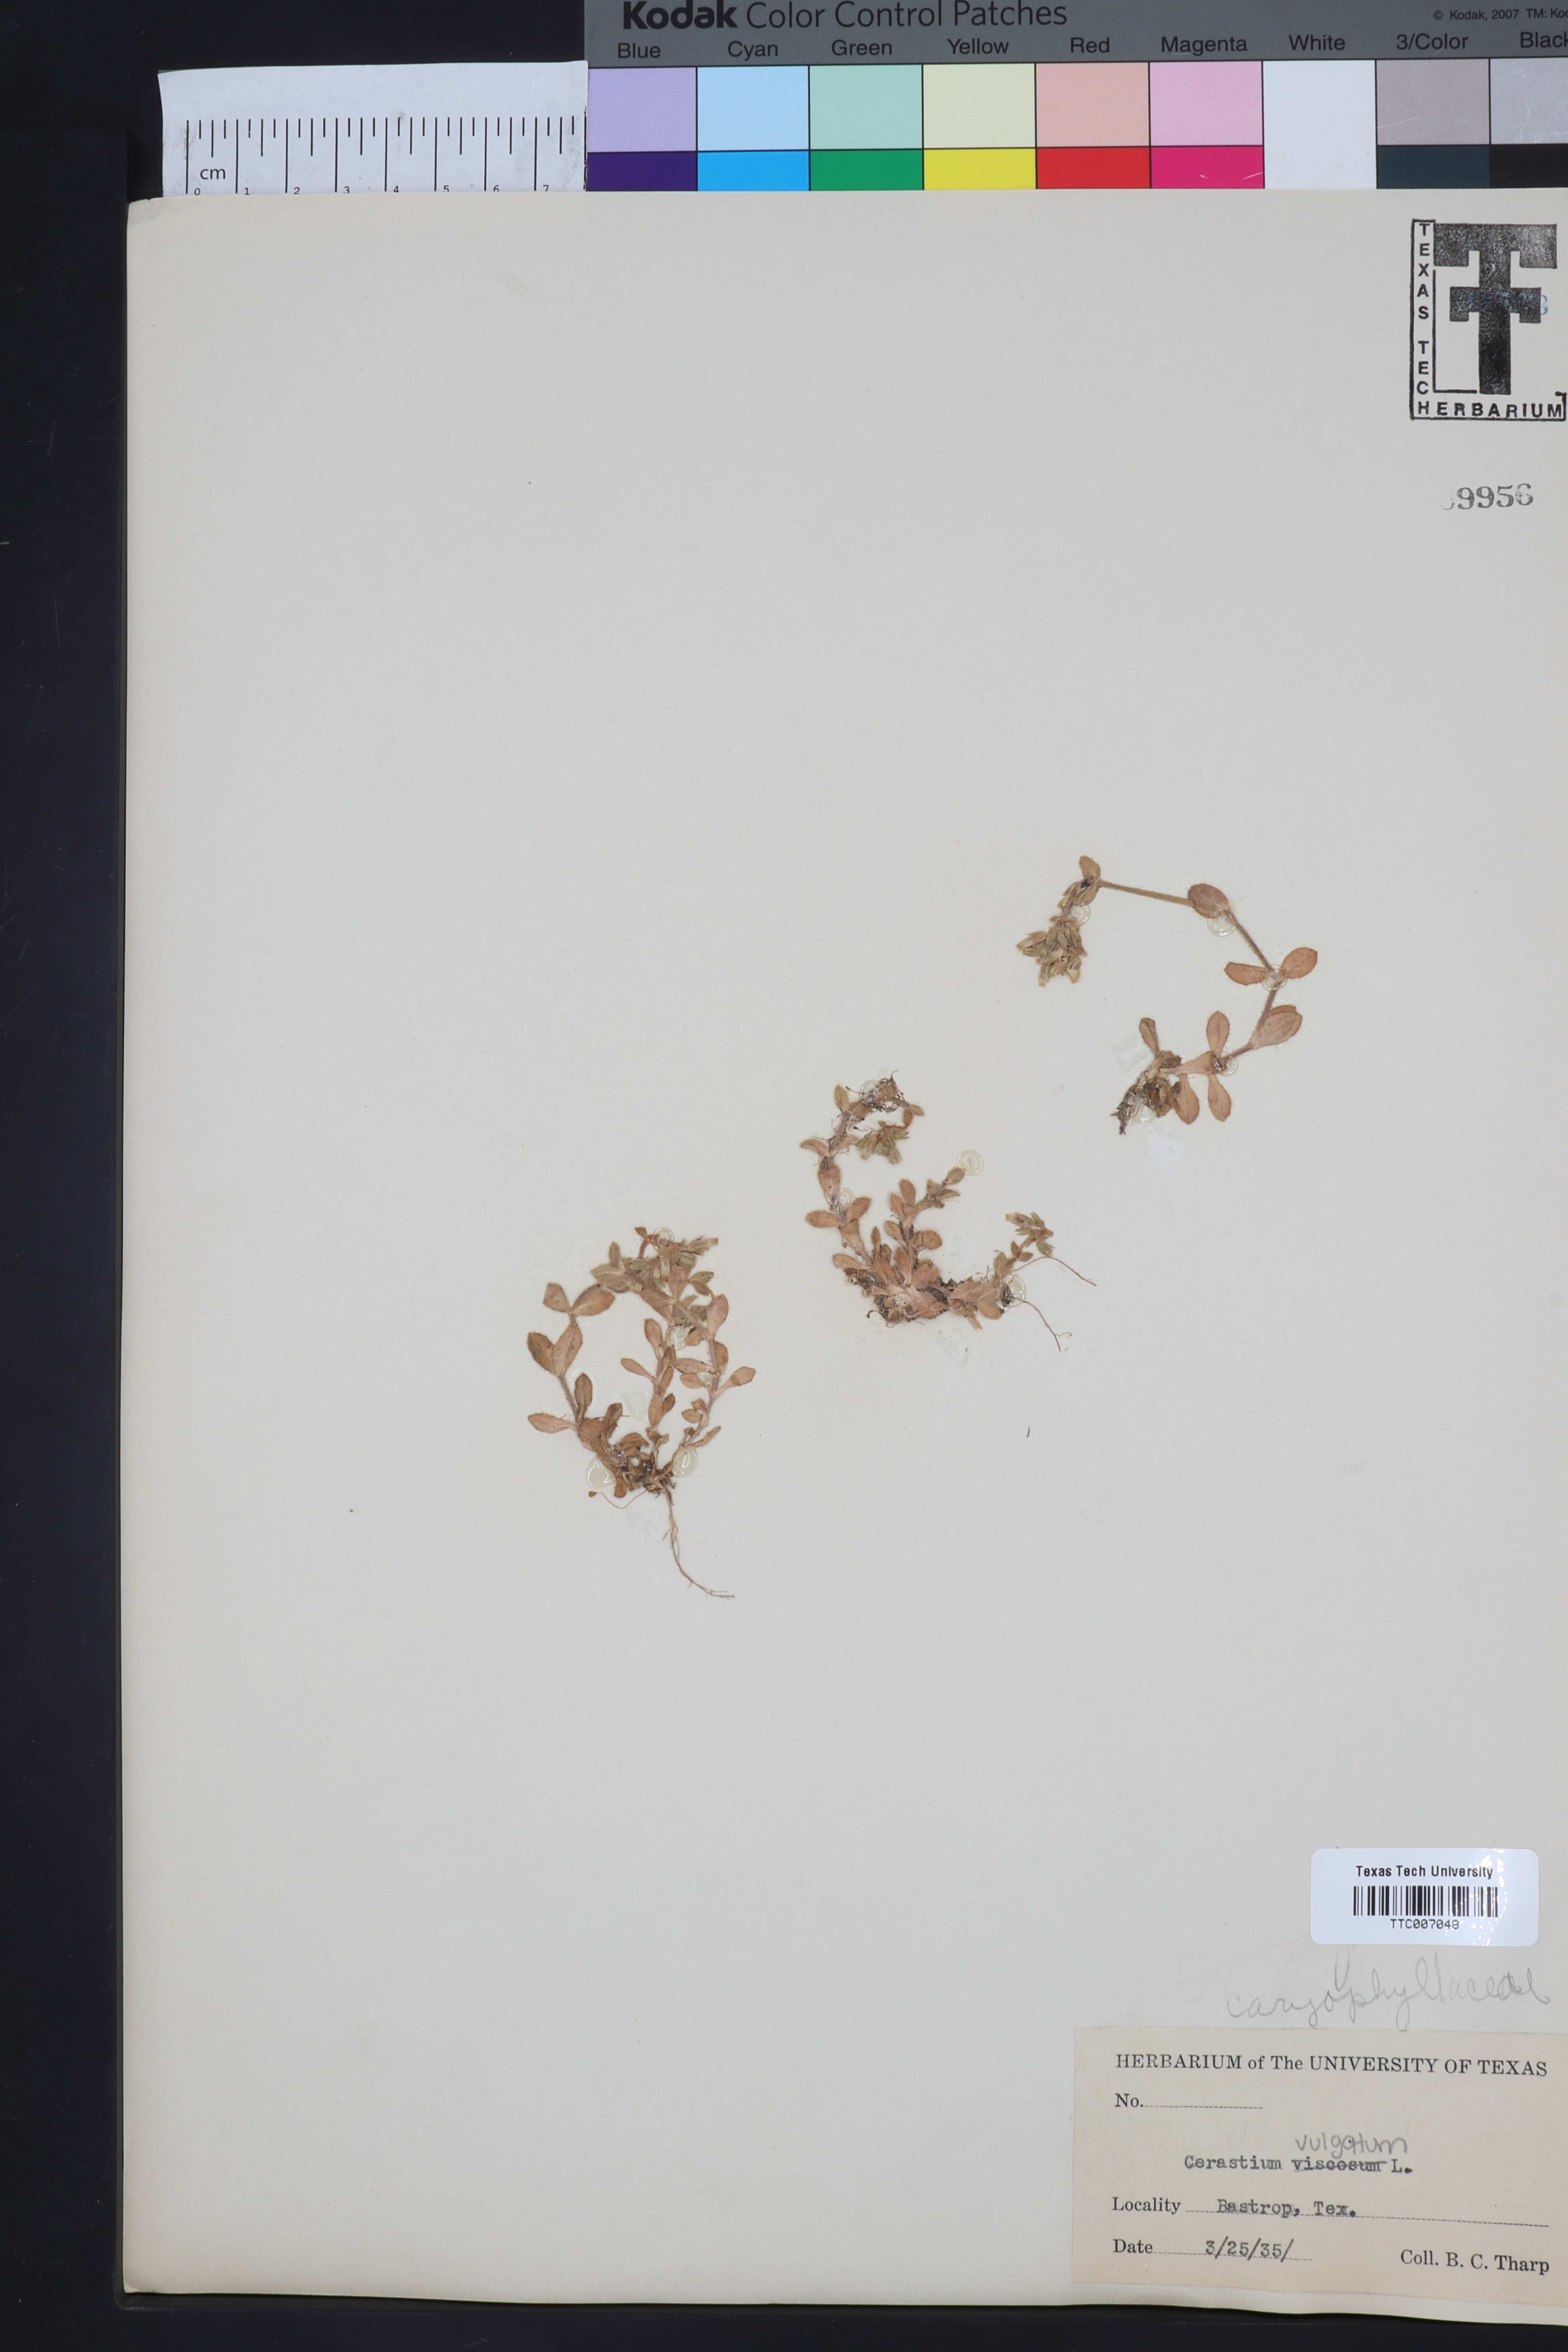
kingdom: Plantae
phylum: Tracheophyta
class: Magnoliopsida
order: Caryophyllales
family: Caryophyllaceae
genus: Cerastium
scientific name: Cerastium holosteoides
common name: Big chickweed
